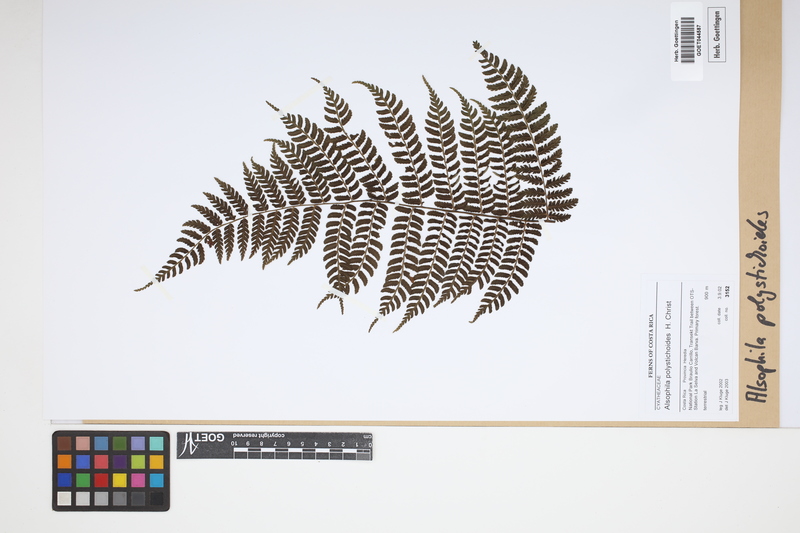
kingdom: Plantae
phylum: Tracheophyta
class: Polypodiopsida
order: Cyatheales
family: Cyatheaceae
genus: Alsophila
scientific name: Alsophila polystichoides
